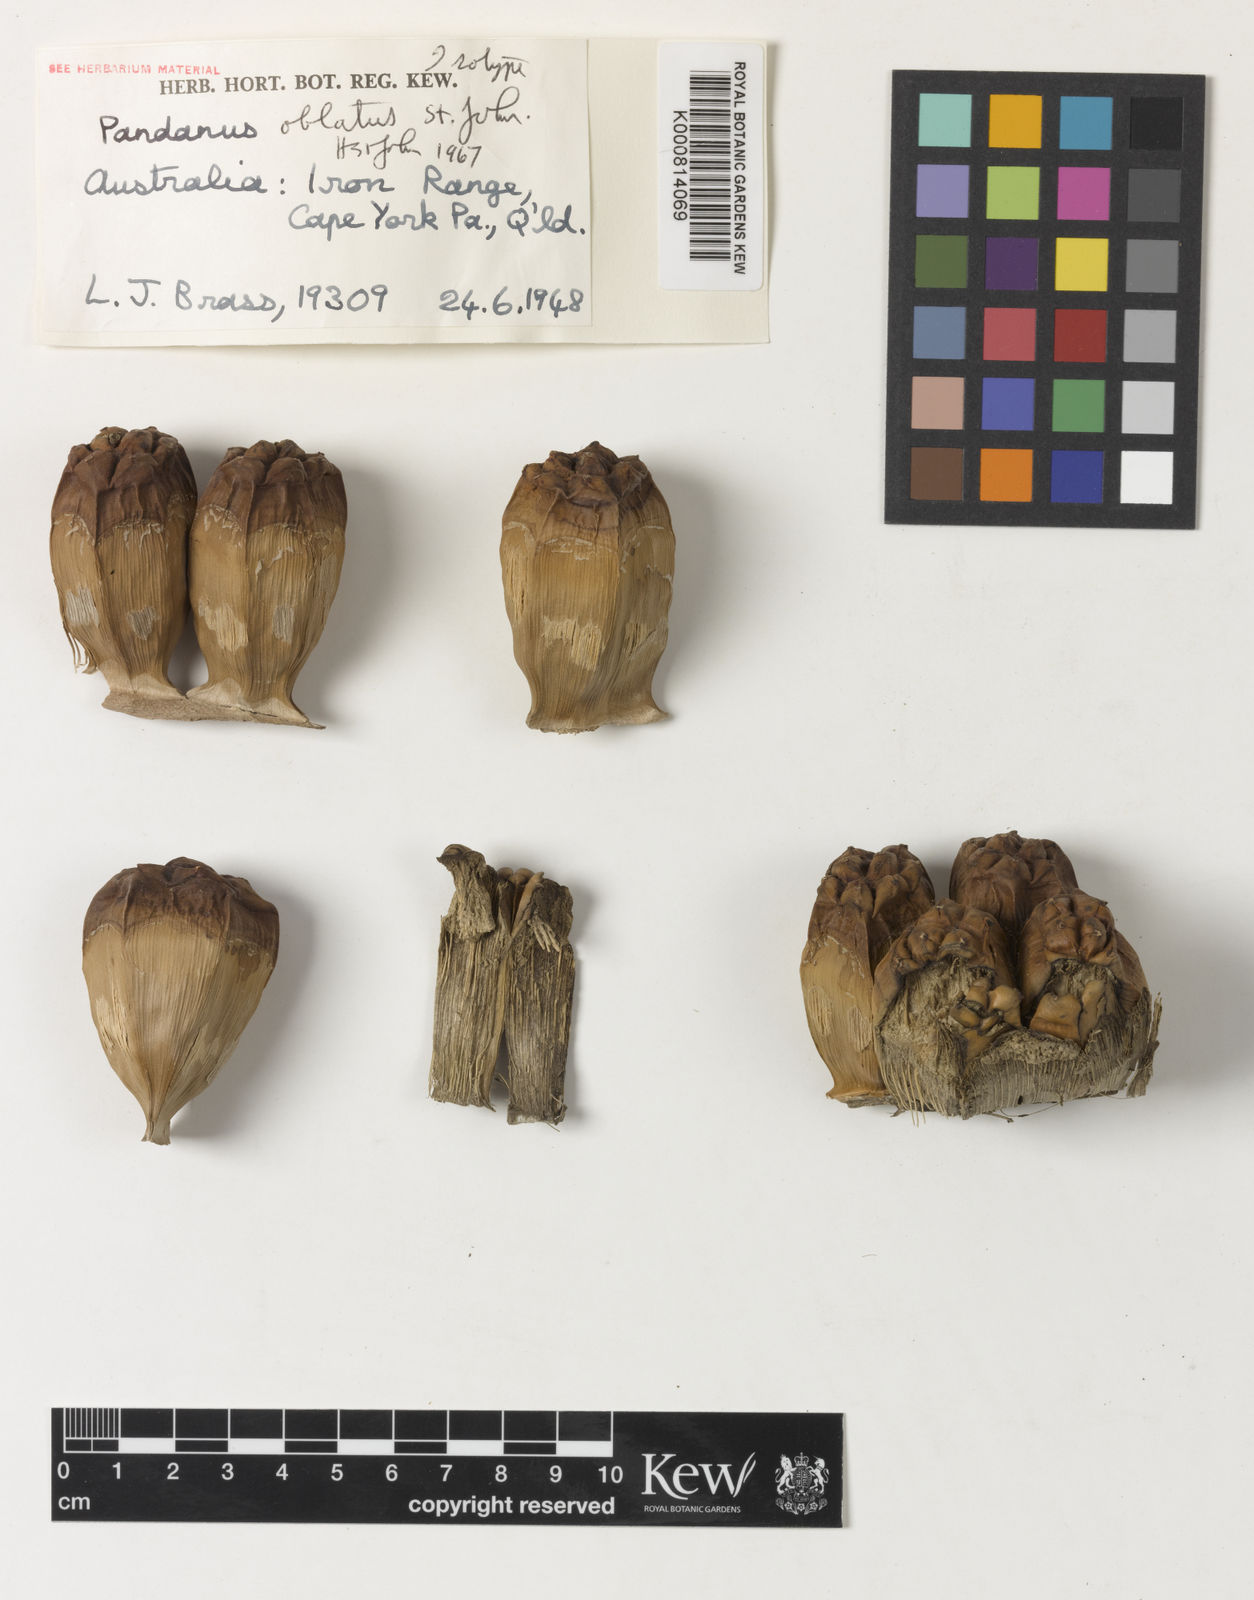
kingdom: Plantae
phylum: Tracheophyta
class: Liliopsida
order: Pandanales
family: Pandanaceae
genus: Pandanus
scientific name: Pandanus oblatus
